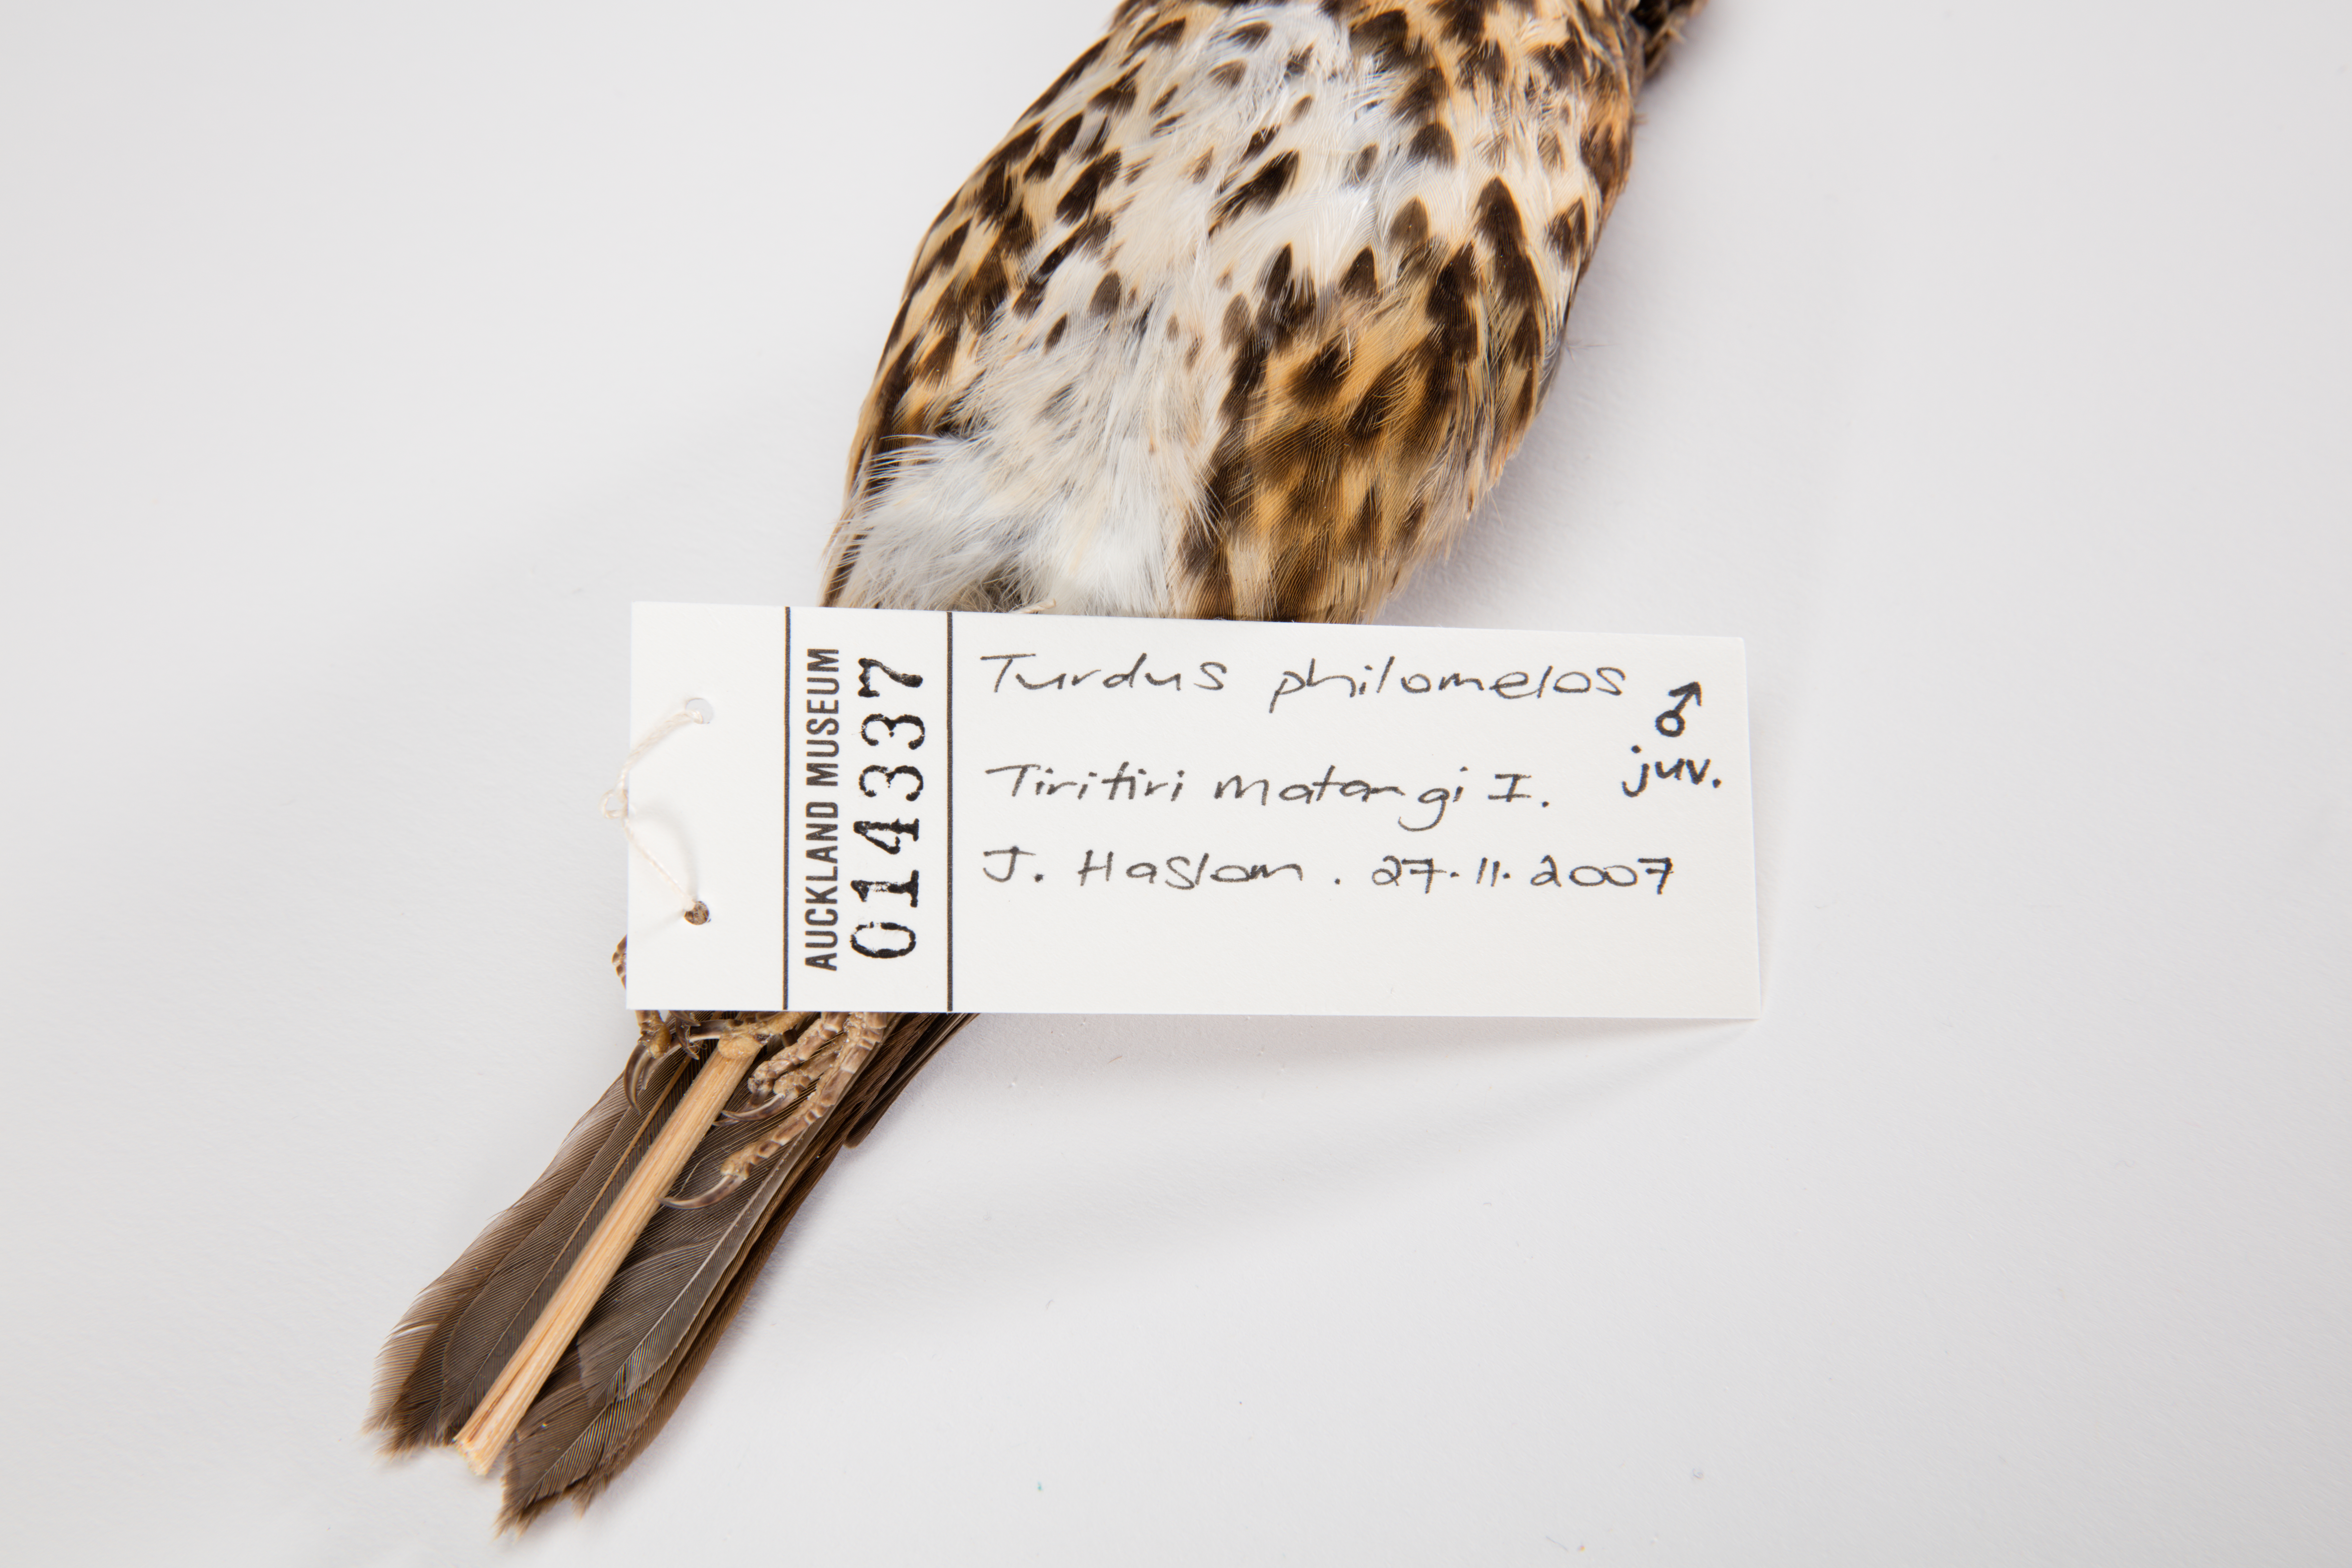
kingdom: Animalia
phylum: Chordata
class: Aves
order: Passeriformes
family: Turdidae
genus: Turdus
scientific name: Turdus philomelos
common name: Song thrush
